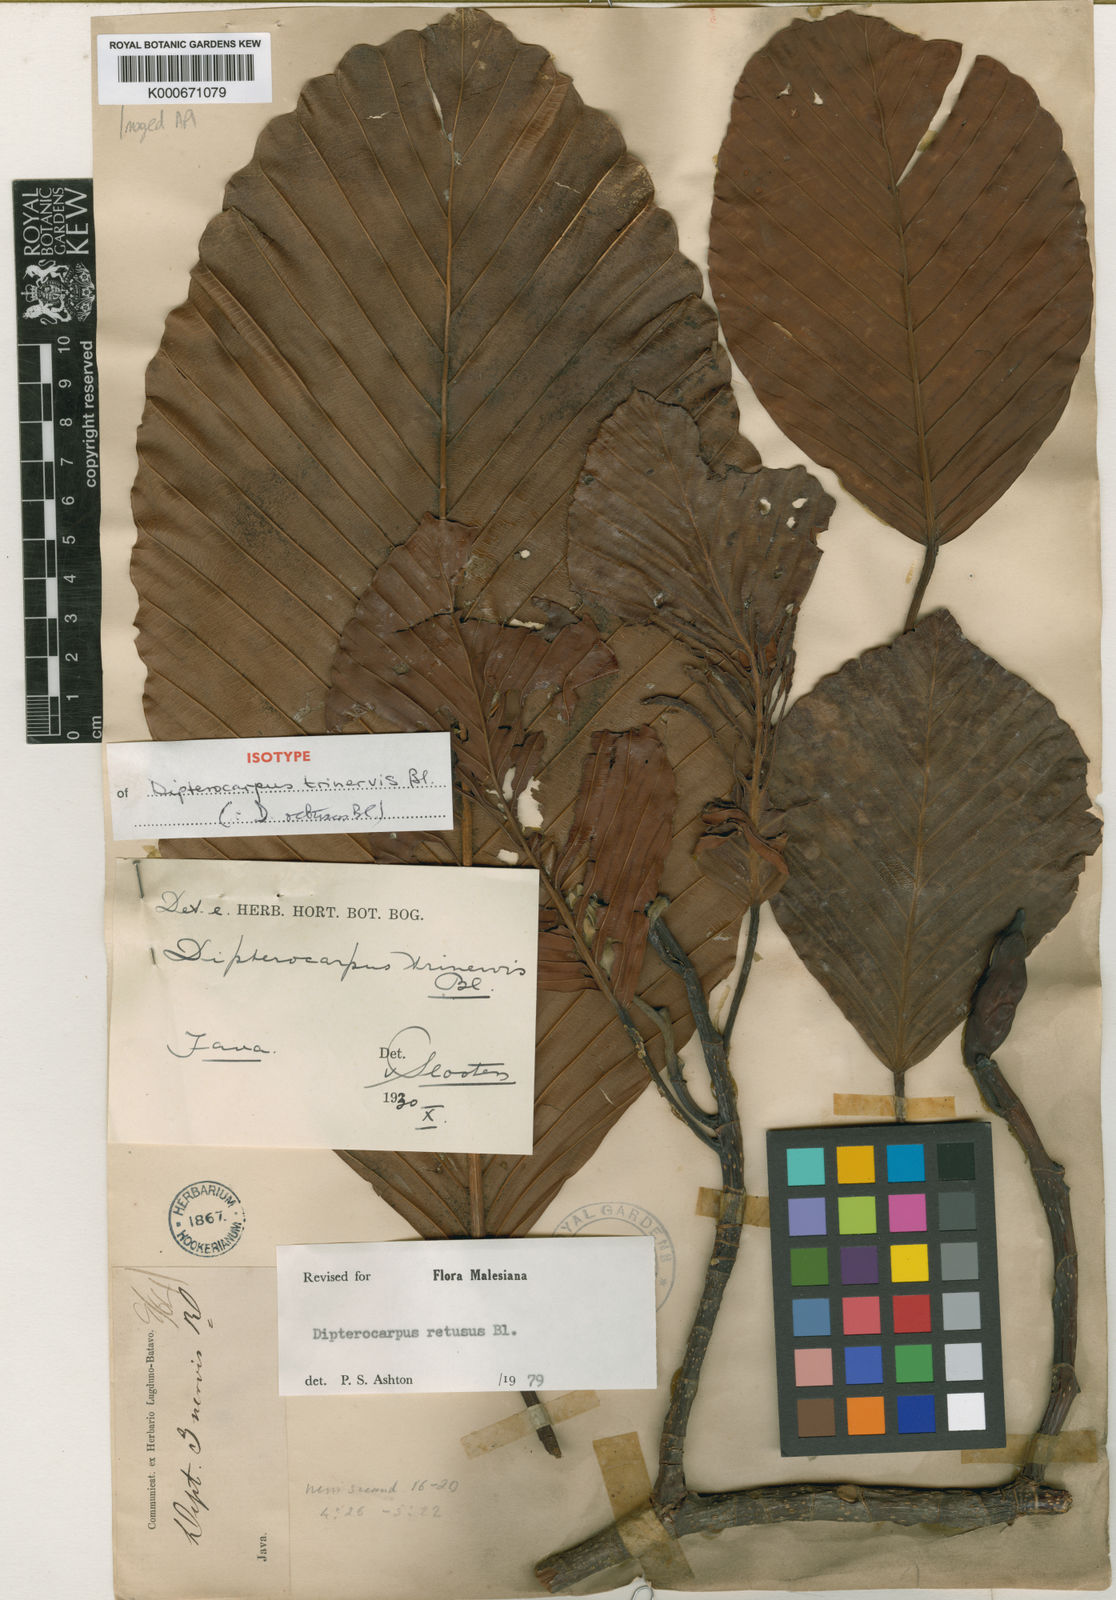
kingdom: Plantae
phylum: Tracheophyta
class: Magnoliopsida
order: Malvales
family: Dipterocarpaceae
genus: Dipterocarpus
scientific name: Dipterocarpus retusus
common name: Hollong
